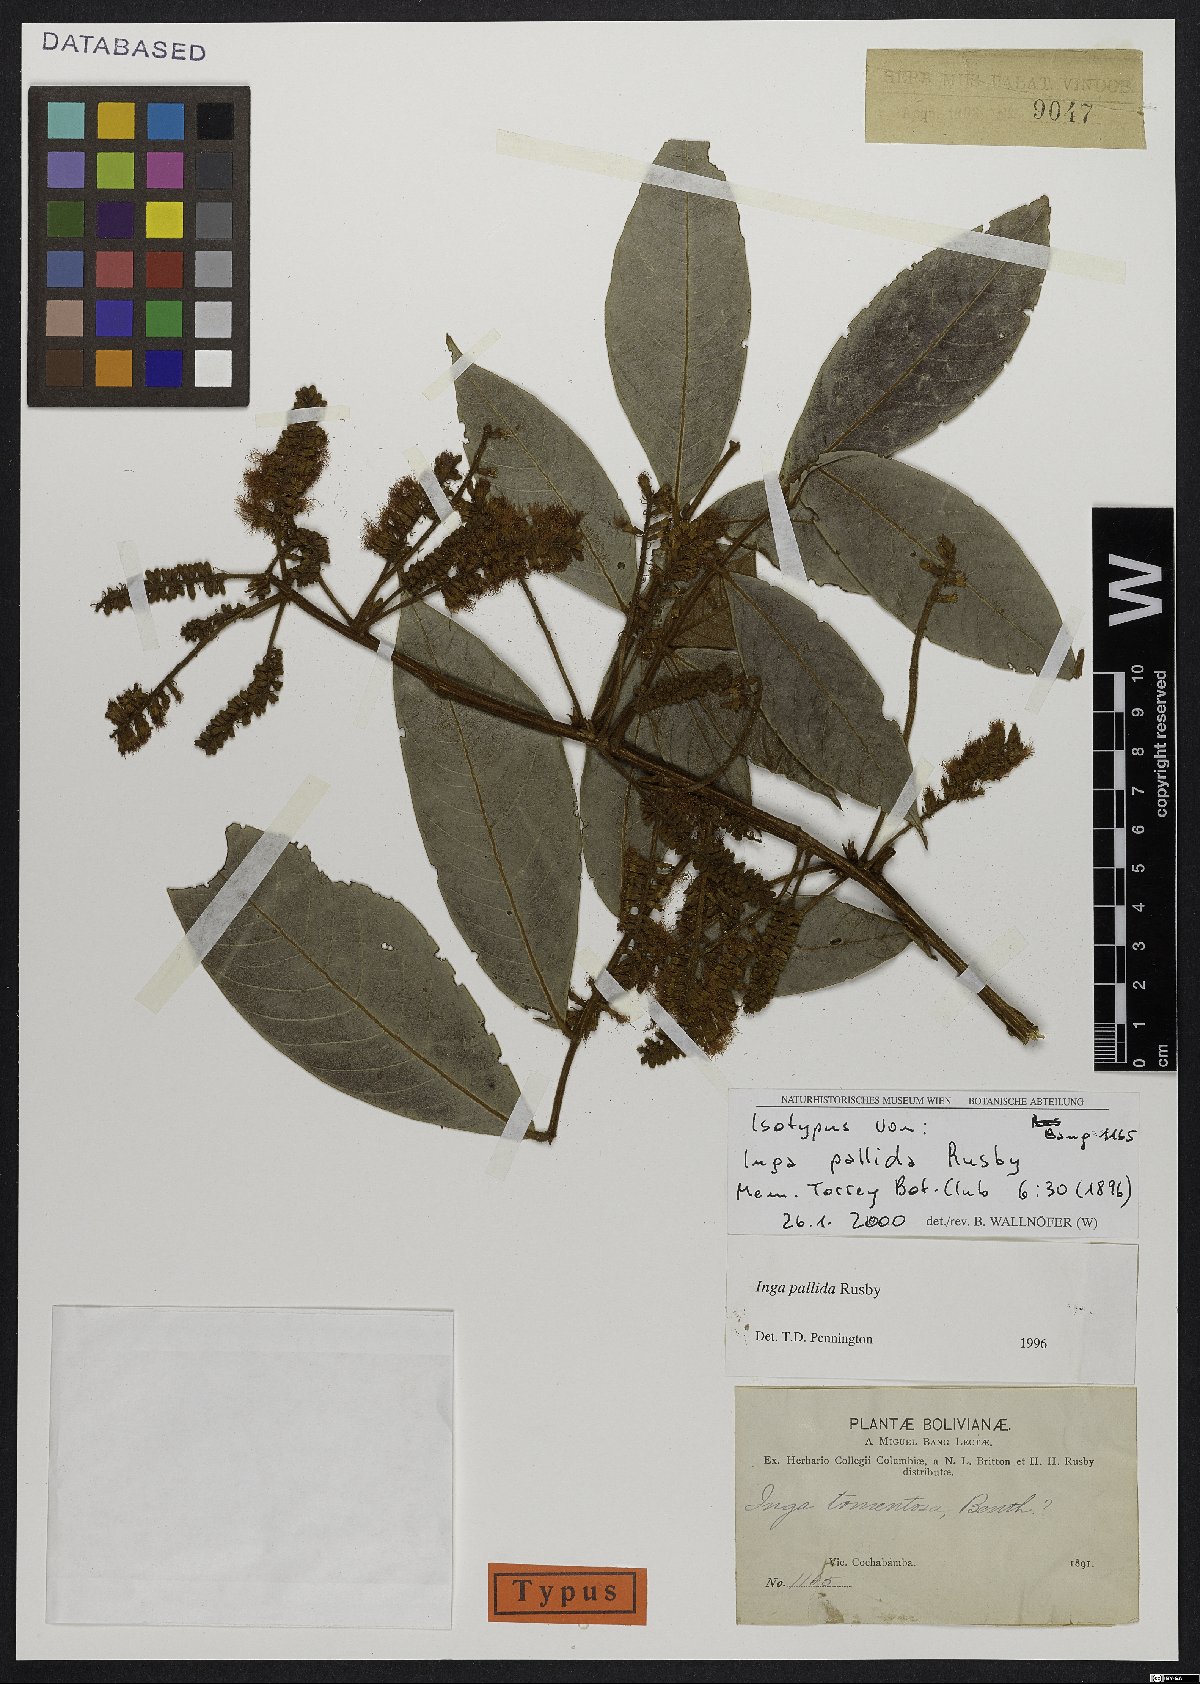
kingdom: Plantae
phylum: Tracheophyta
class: Magnoliopsida
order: Fabales
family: Fabaceae
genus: Inga
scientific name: Inga pallida
